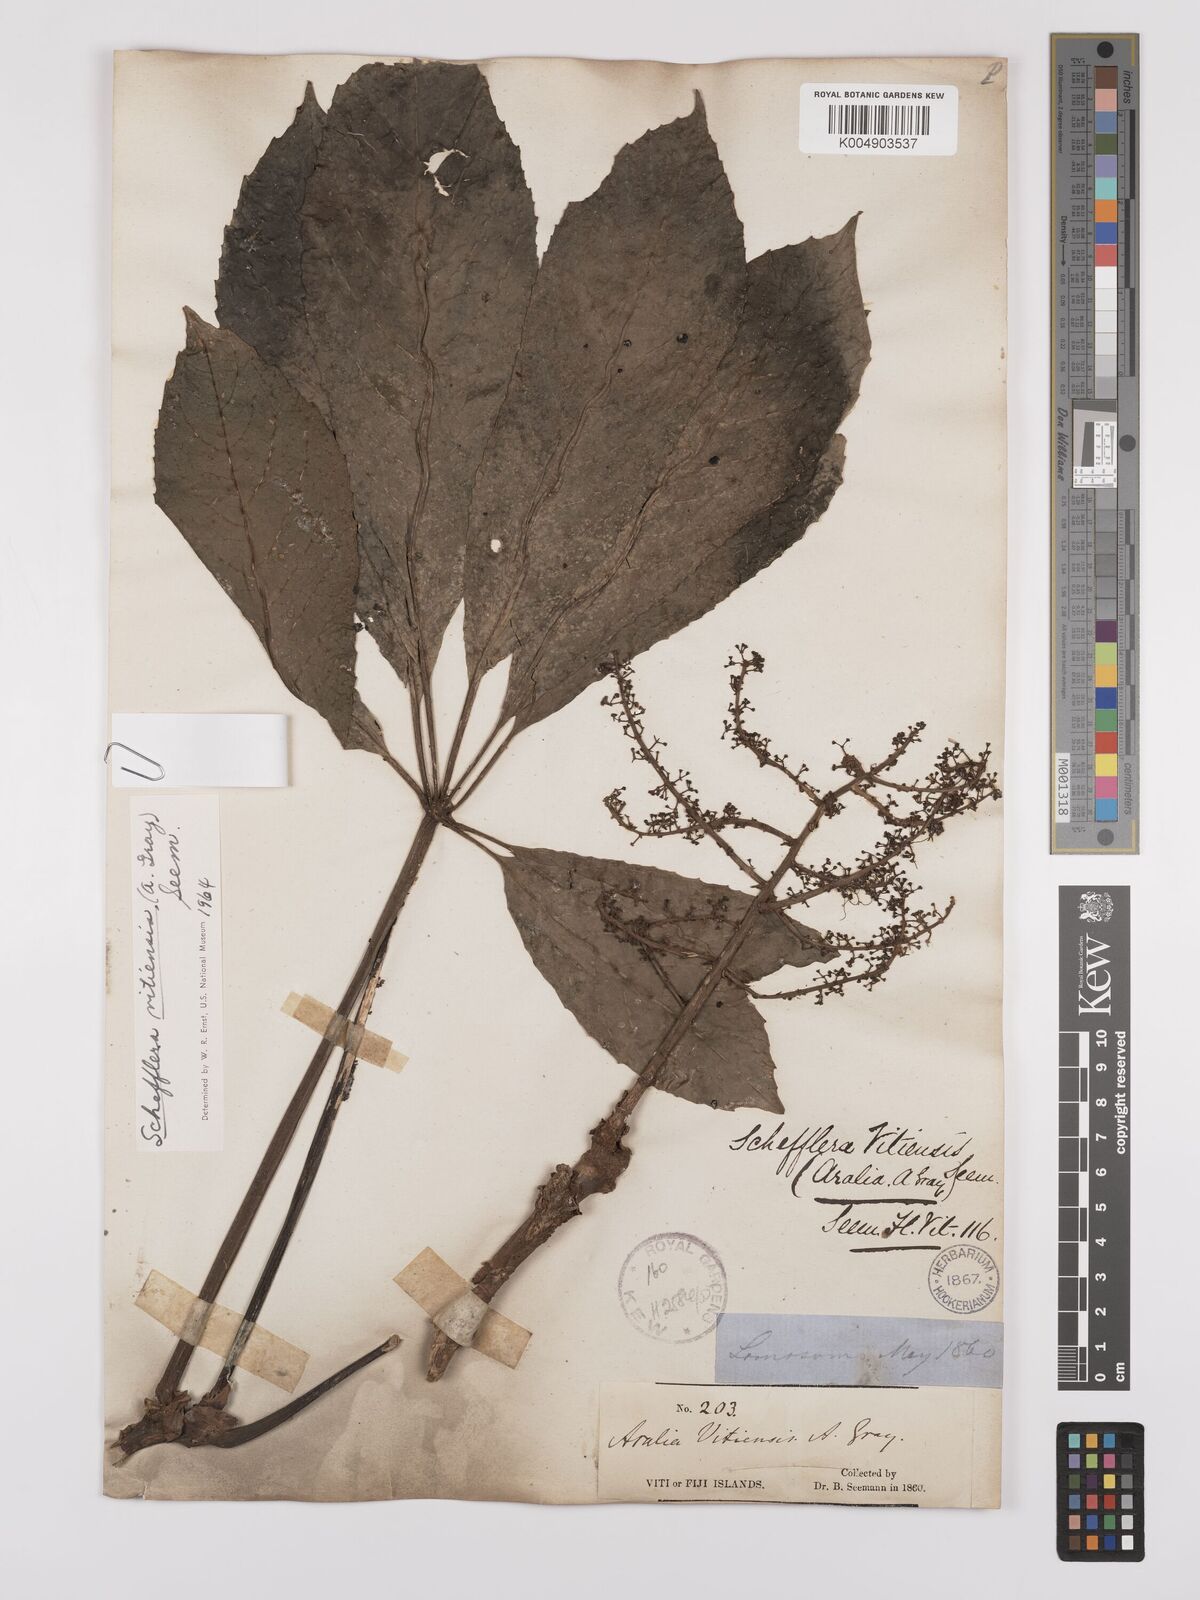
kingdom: Plantae
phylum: Tracheophyta
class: Magnoliopsida
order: Apiales
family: Araliaceae
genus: Schefflera
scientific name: Schefflera vitiensis
